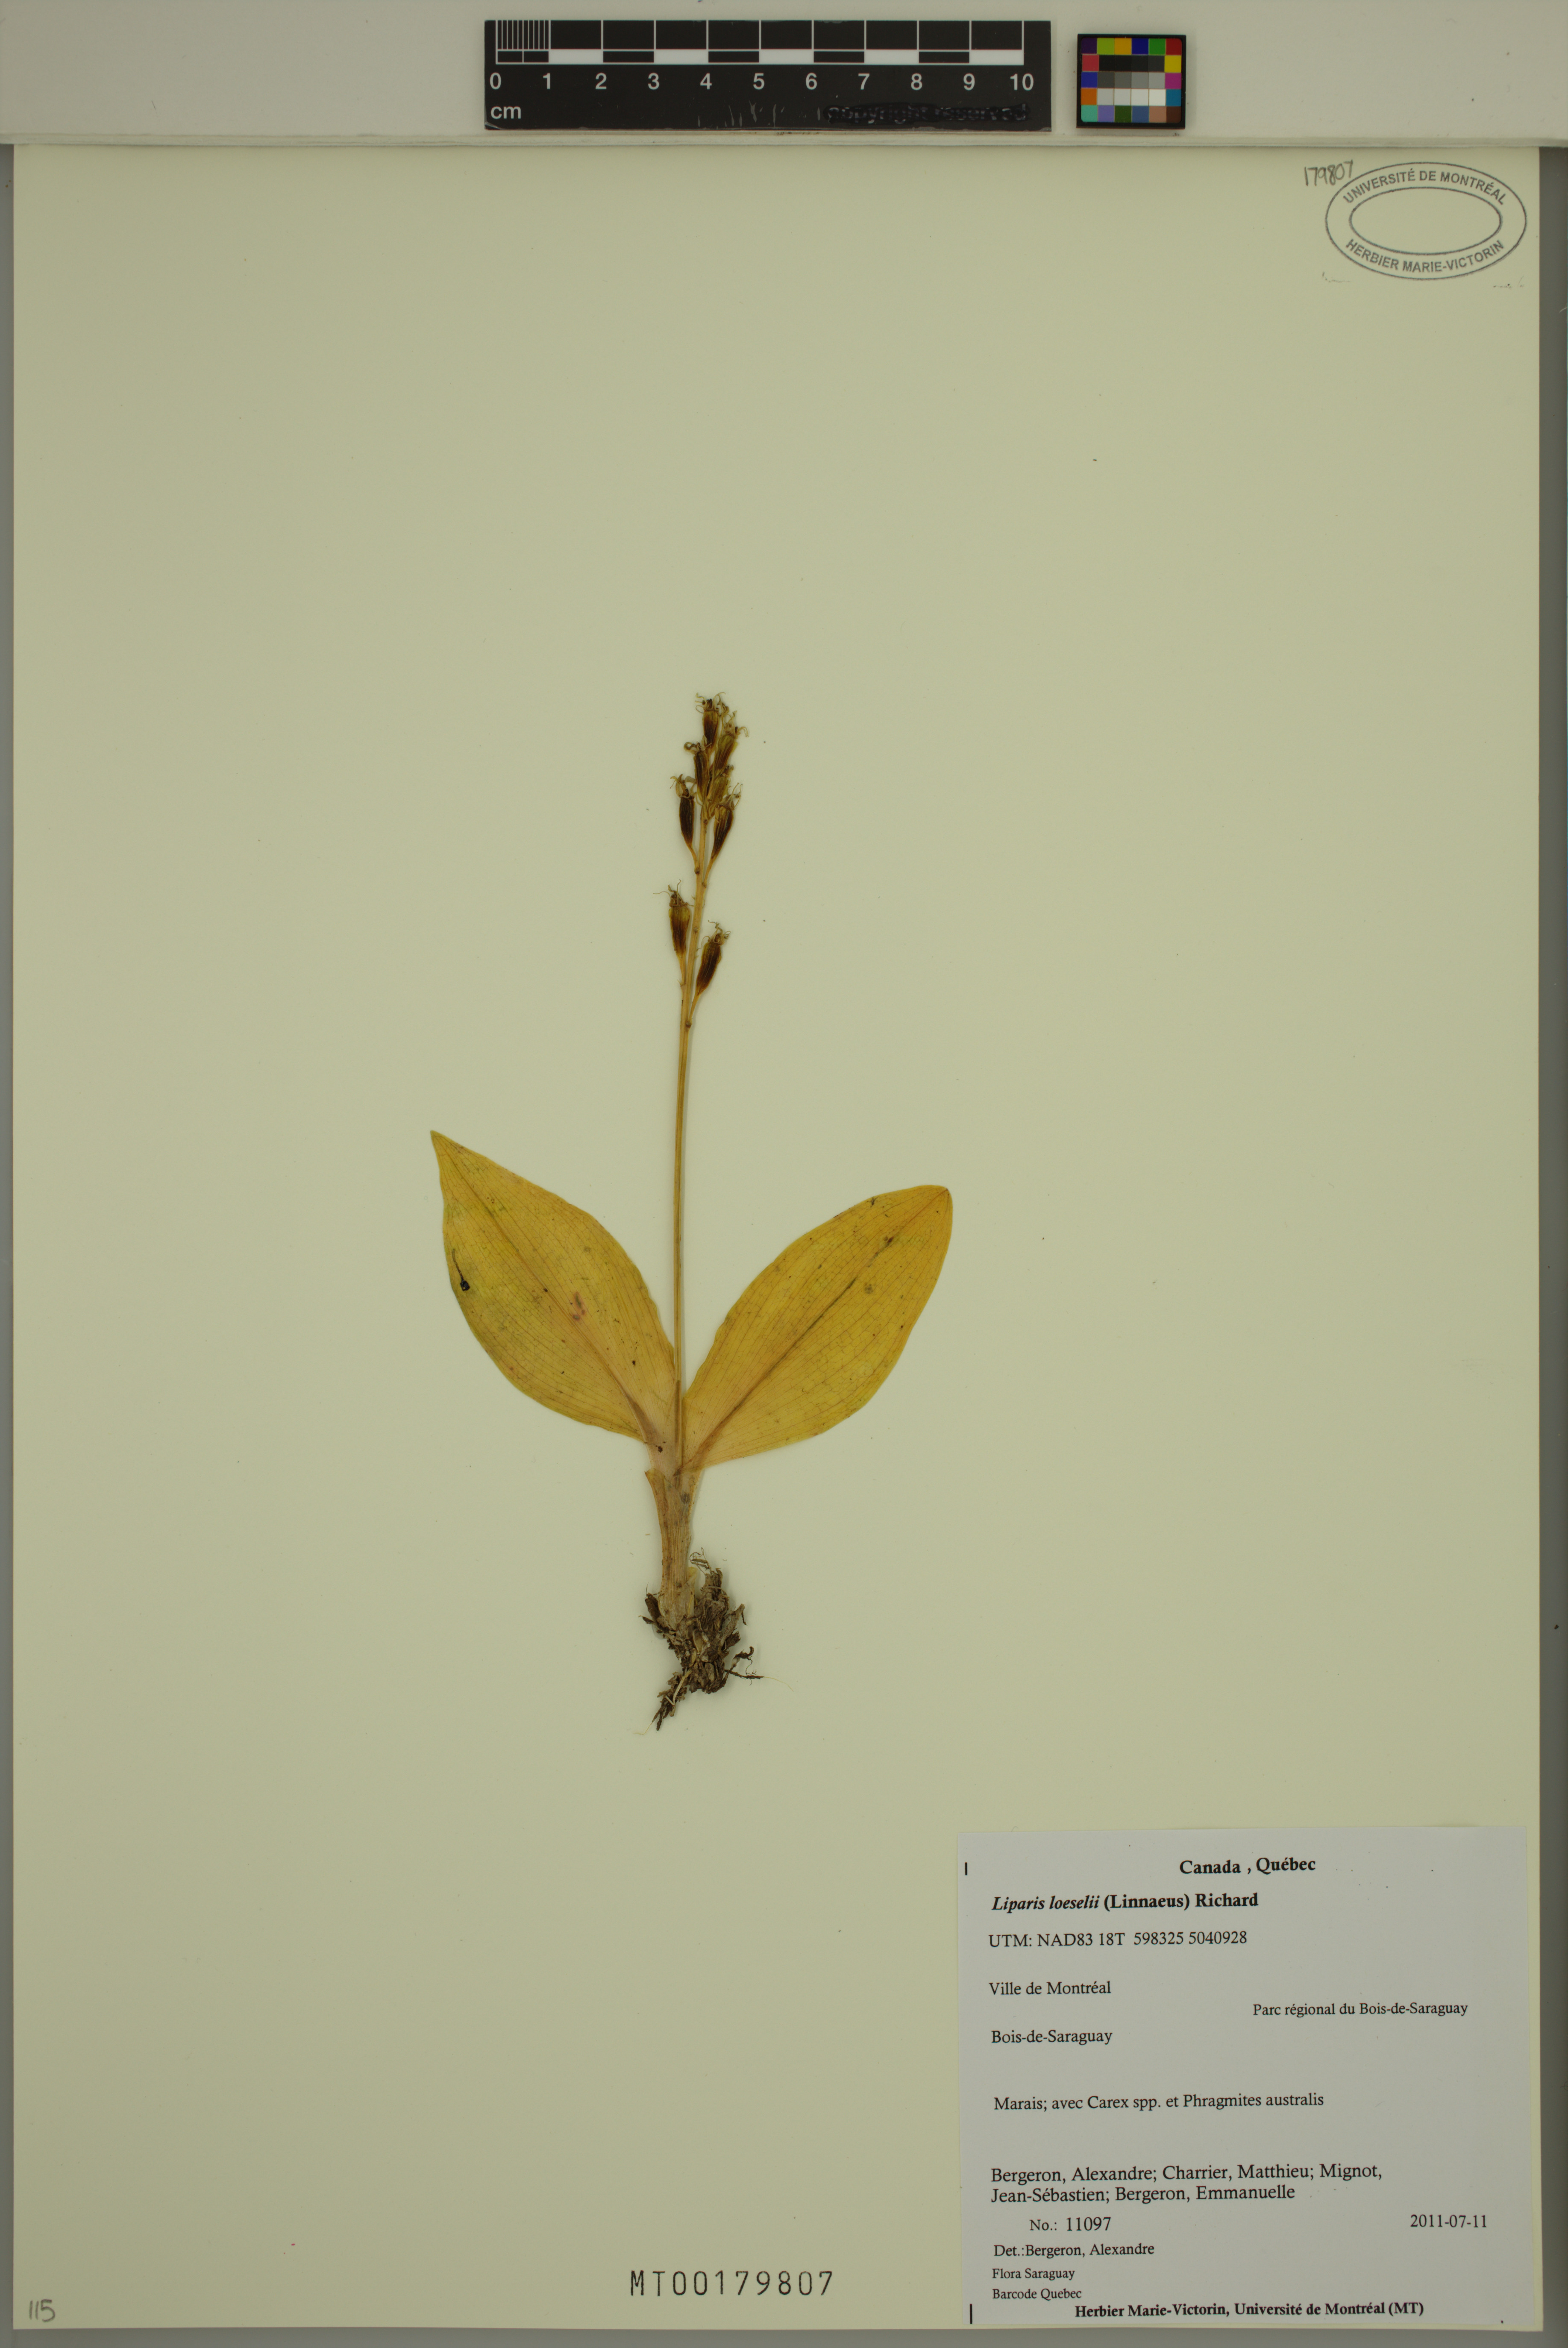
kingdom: Animalia
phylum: Arthropoda
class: Insecta
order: Coleoptera
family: Curculionidae
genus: Liparis
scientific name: Liparis loeselii
